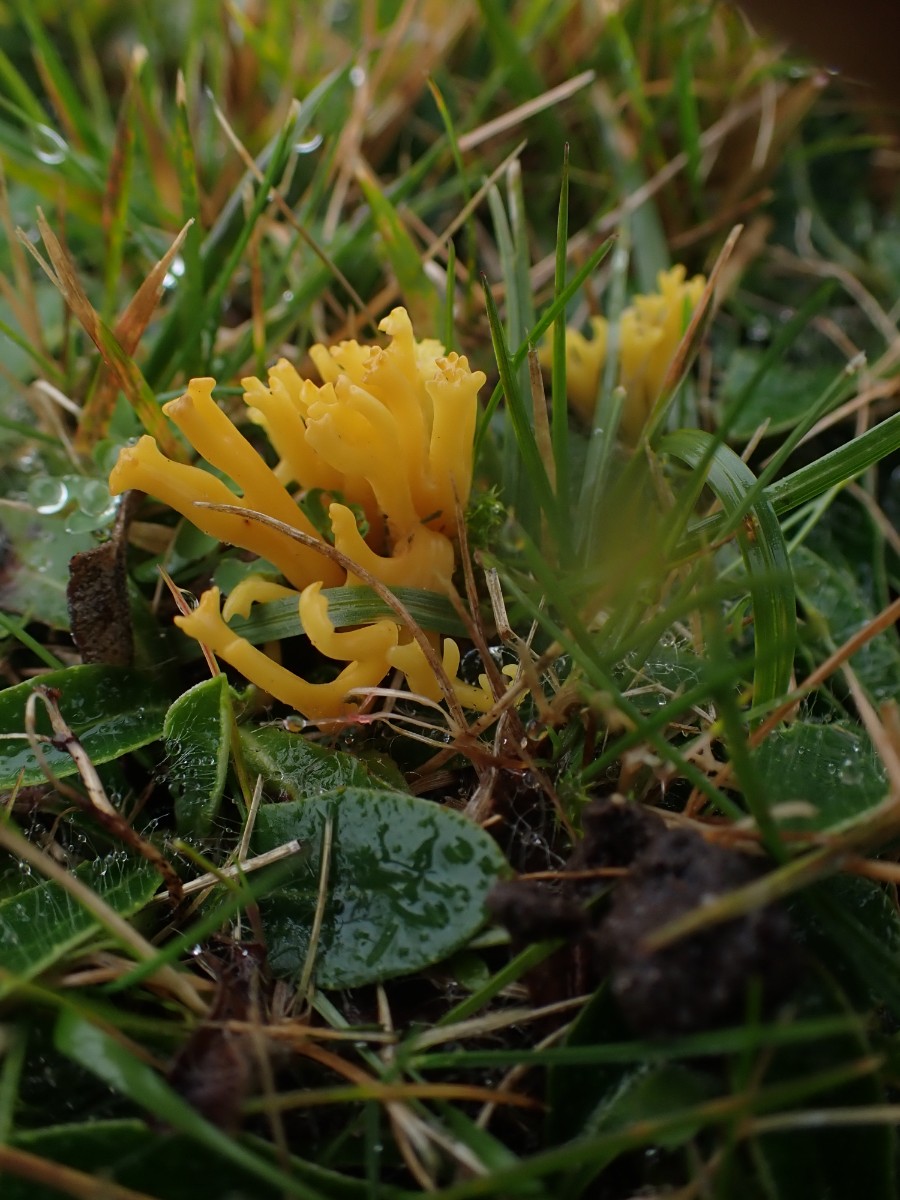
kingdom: Fungi
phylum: Basidiomycota
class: Agaricomycetes
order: Agaricales
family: Clavariaceae
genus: Clavulinopsis
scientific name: Clavulinopsis corniculata
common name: eng-køllesvamp
